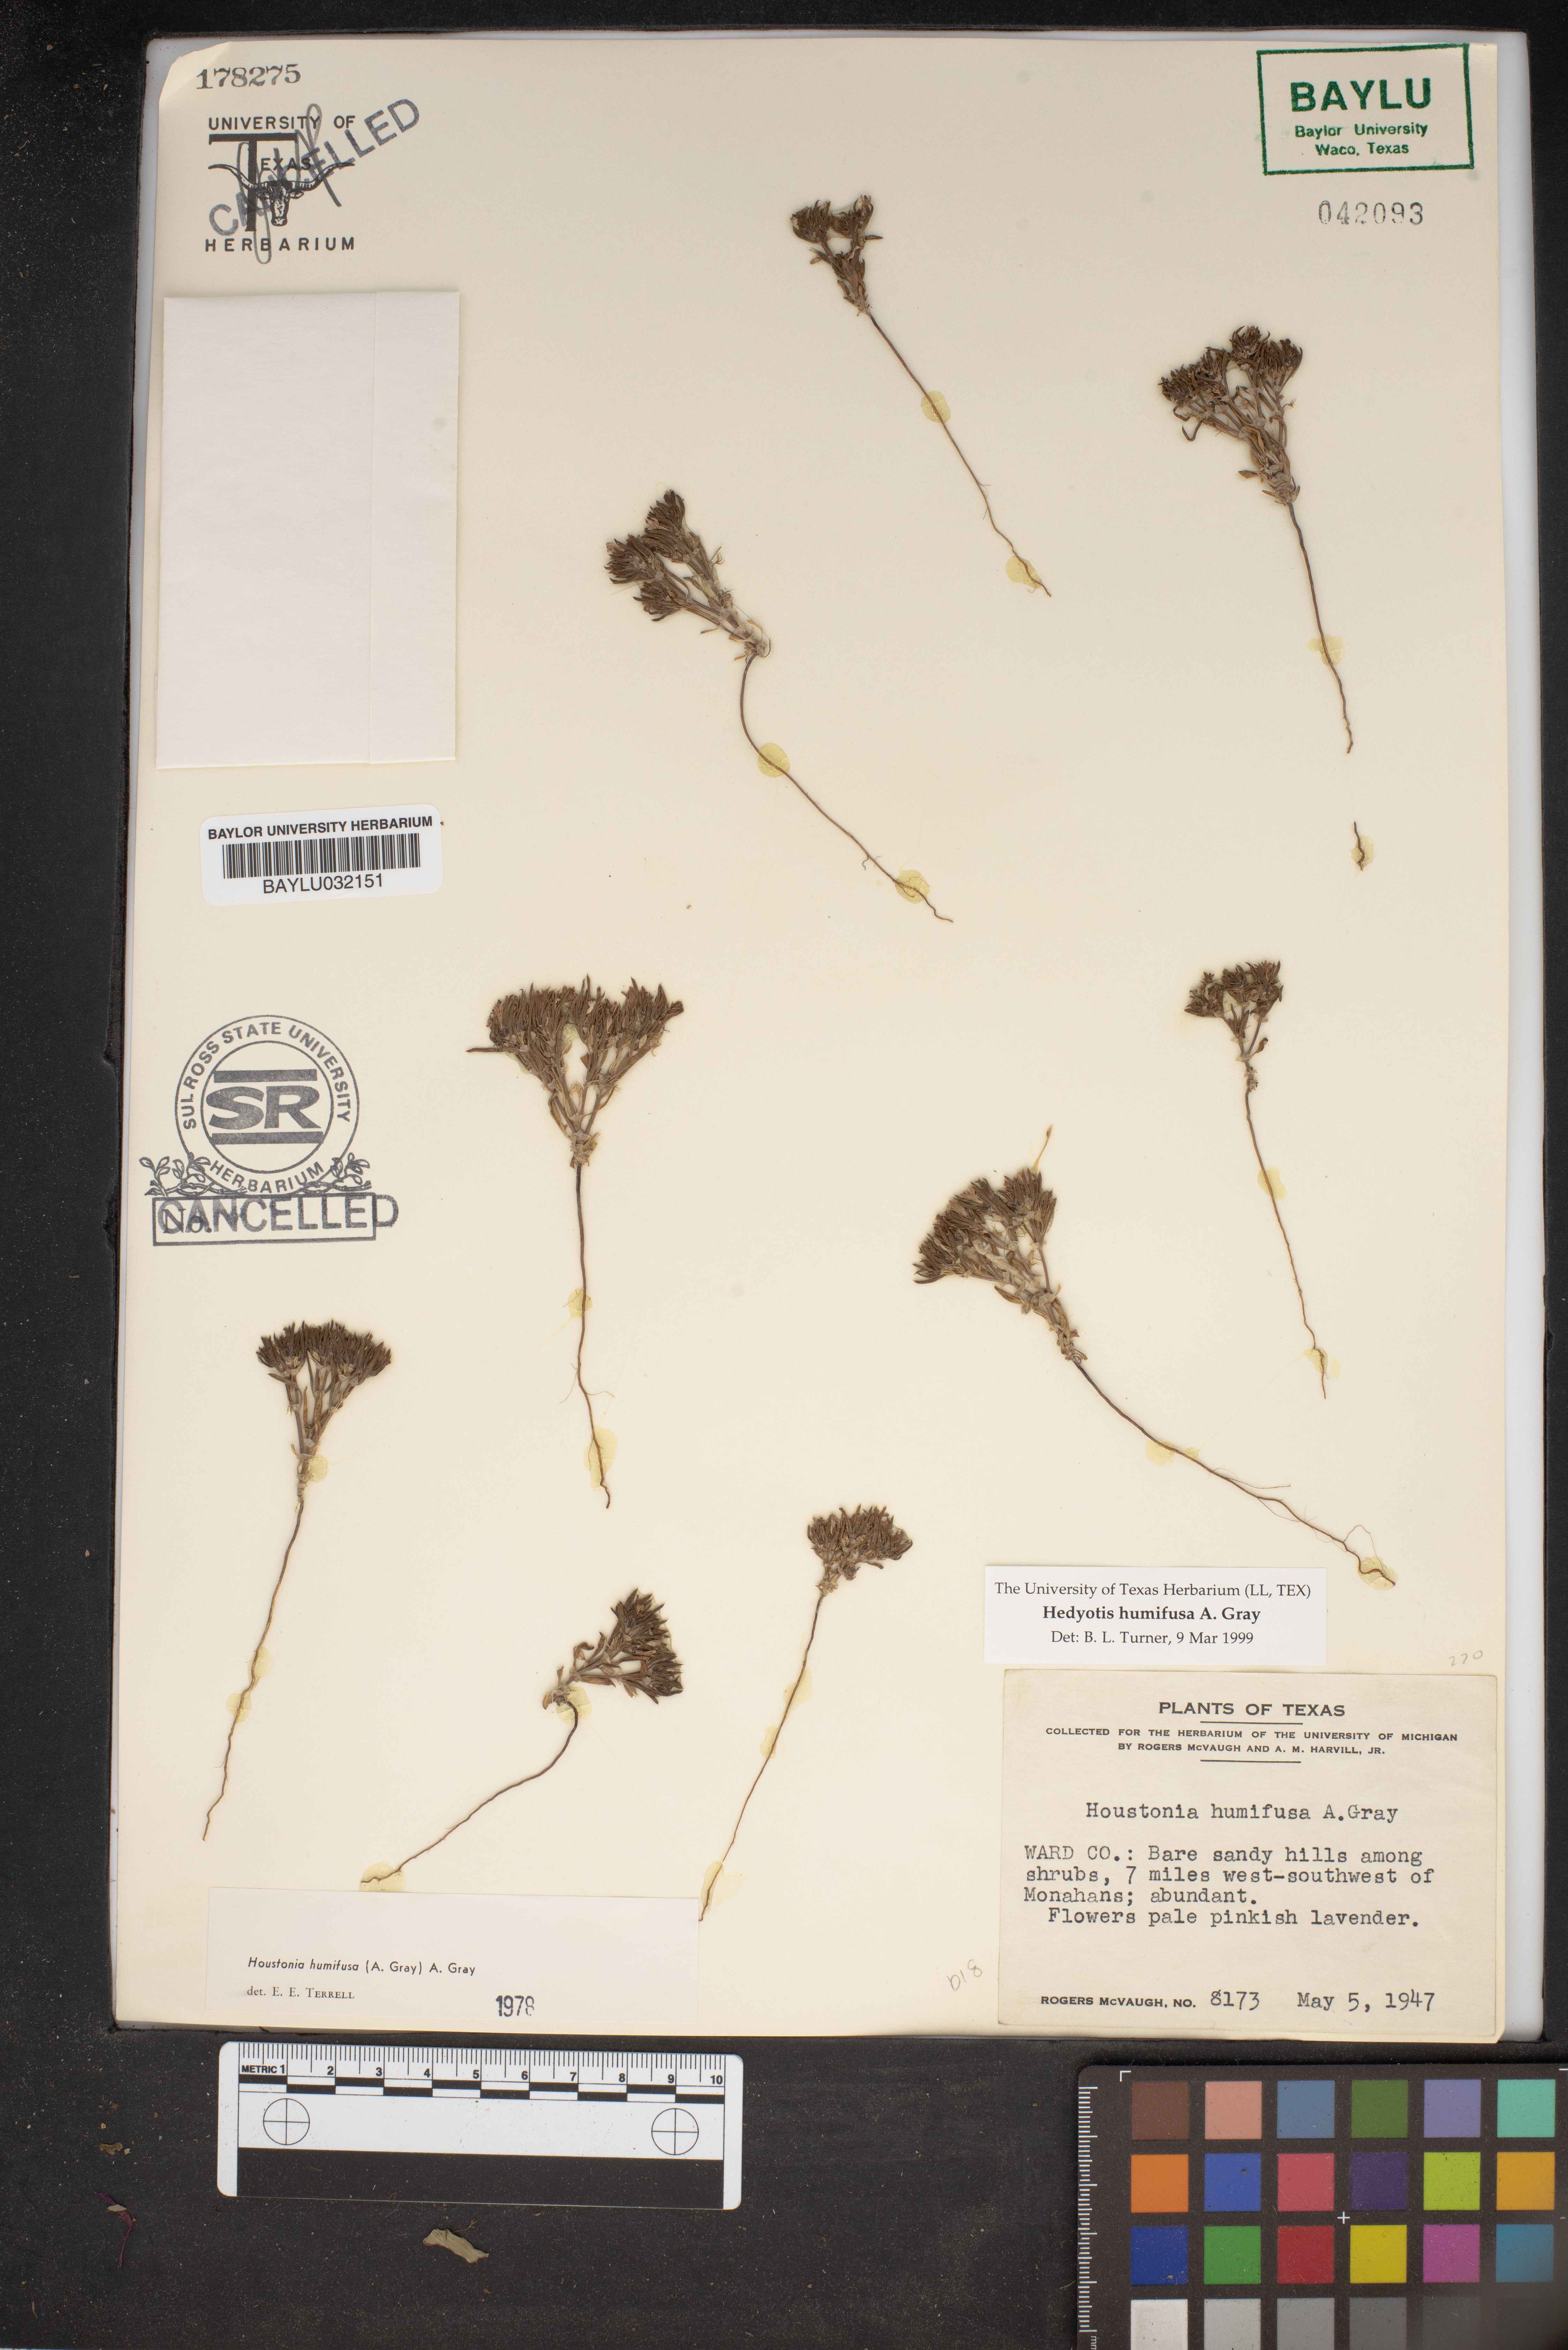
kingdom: Plantae
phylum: Tracheophyta
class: Magnoliopsida
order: Gentianales
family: Rubiaceae
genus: Houstonia
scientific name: Houstonia humifusa
